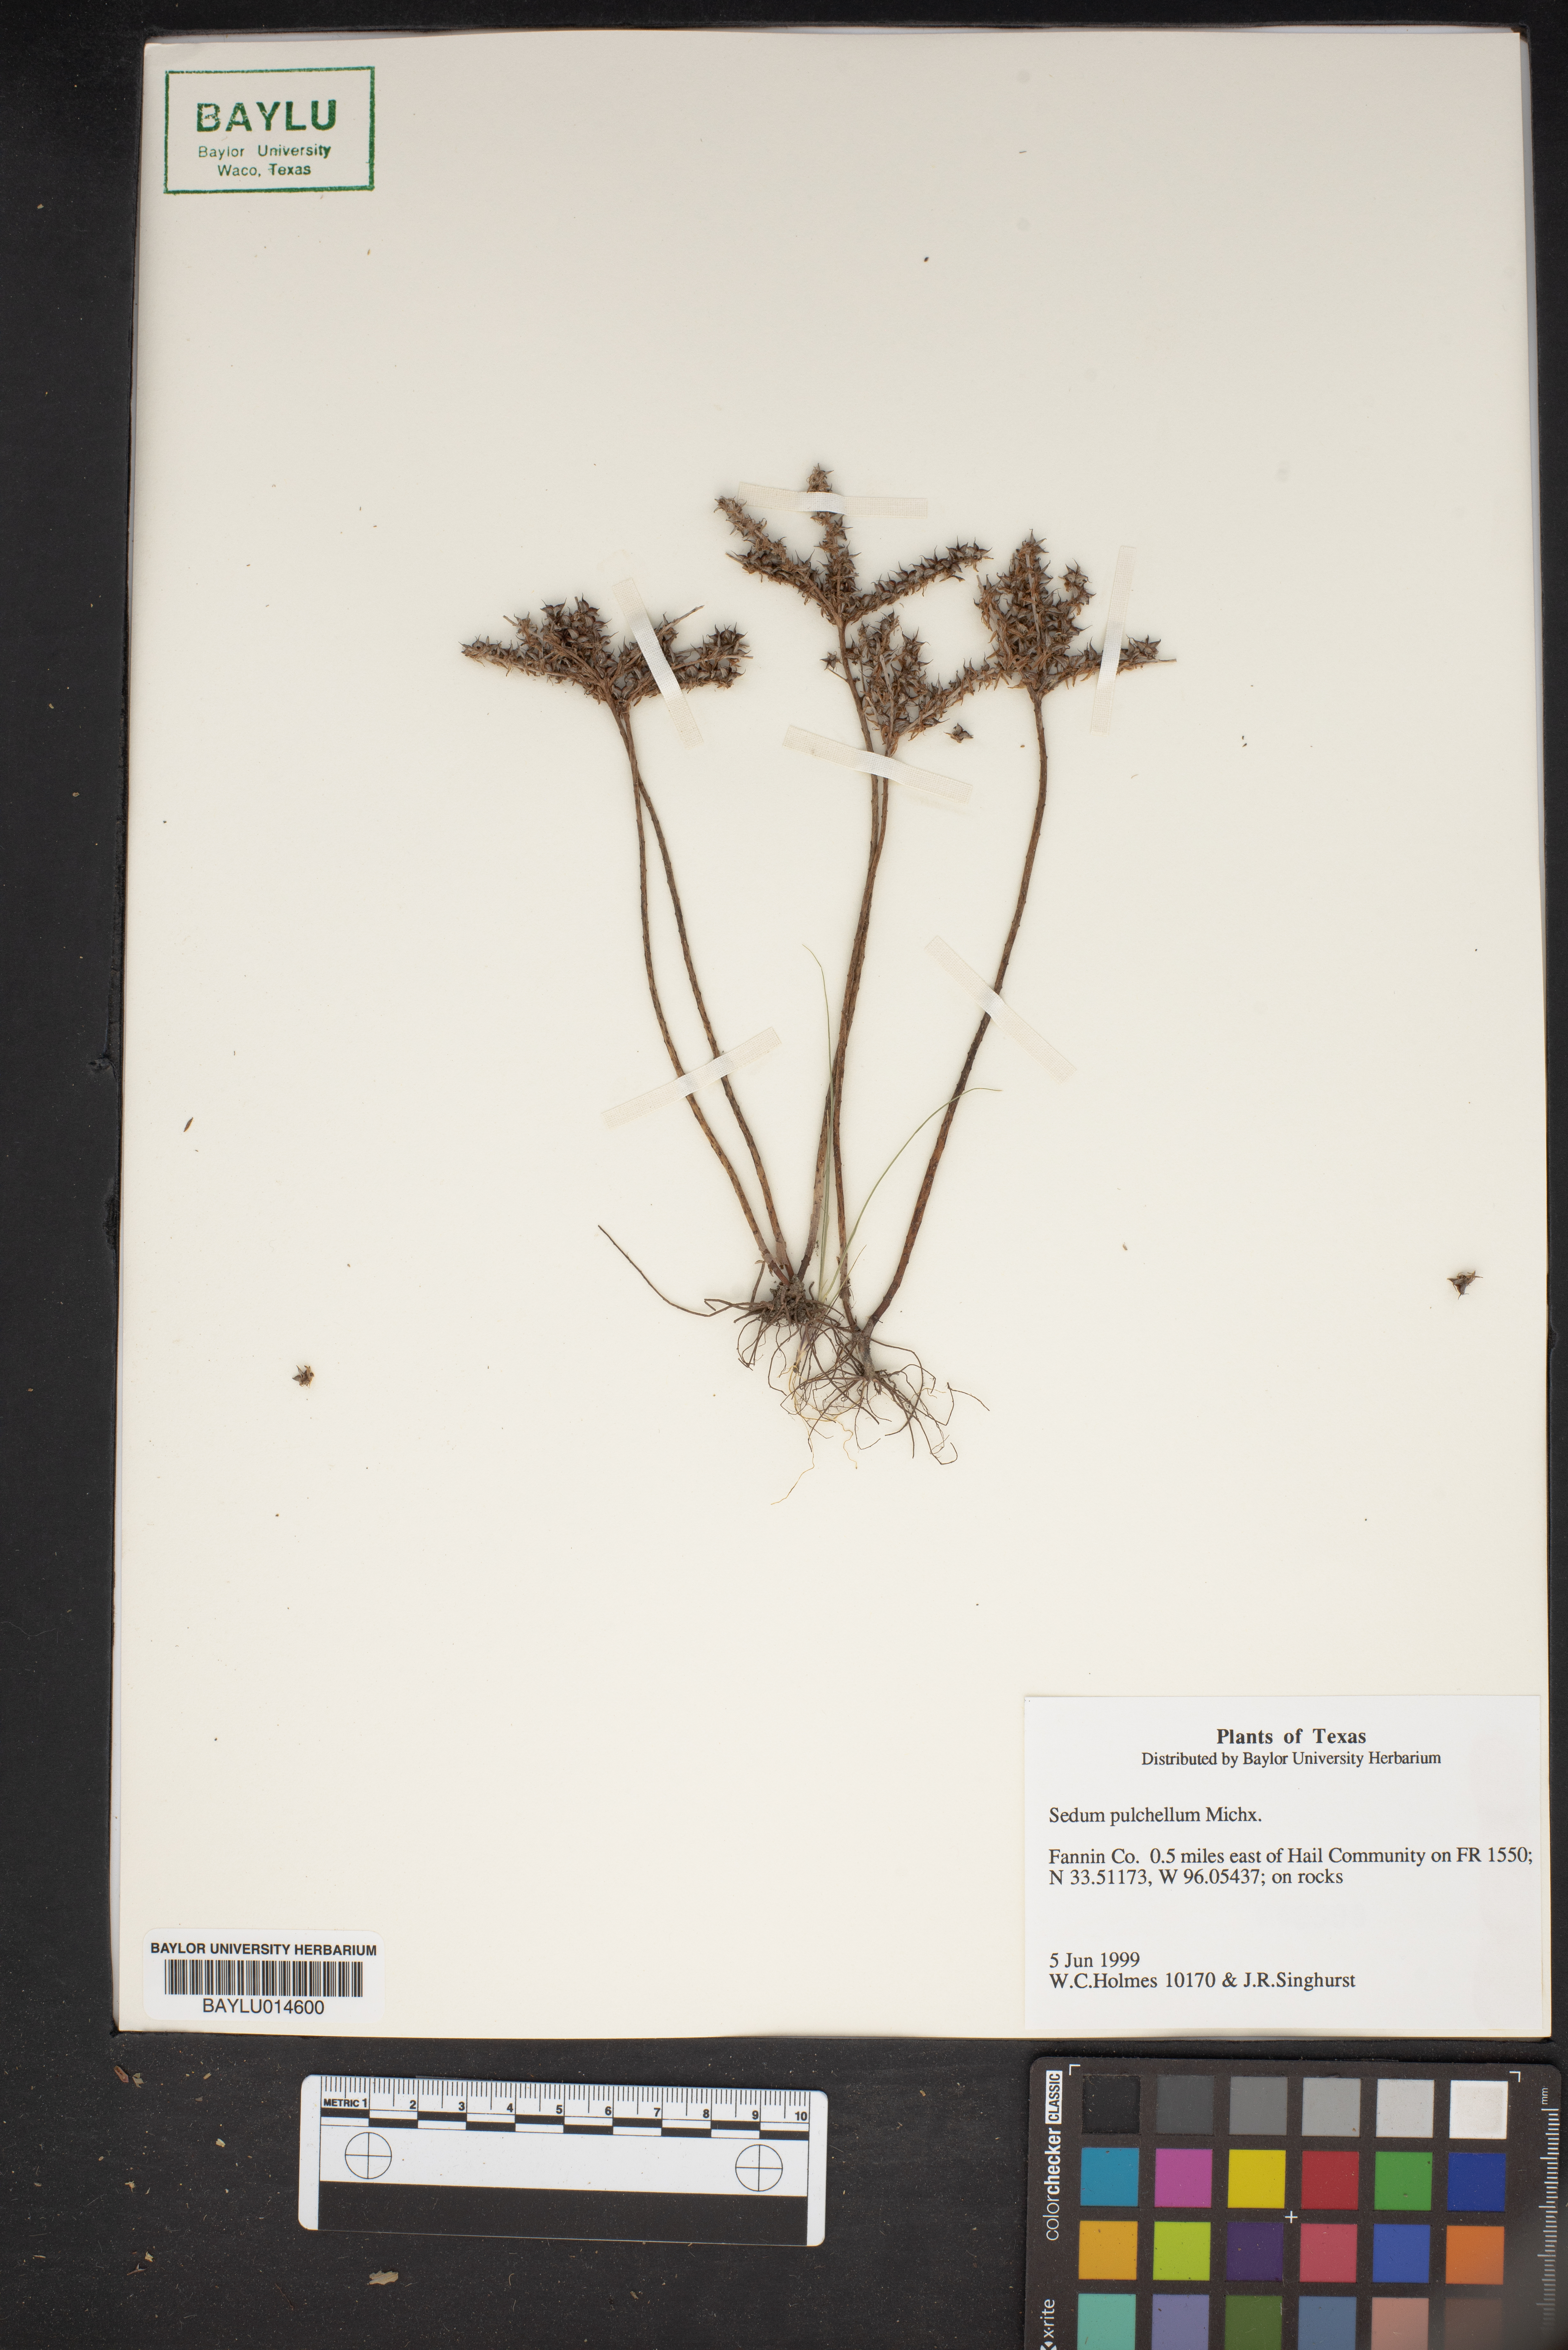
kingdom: Plantae
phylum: Tracheophyta
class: Magnoliopsida
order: Saxifragales
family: Crassulaceae
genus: Sedum
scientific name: Sedum pulchellum
